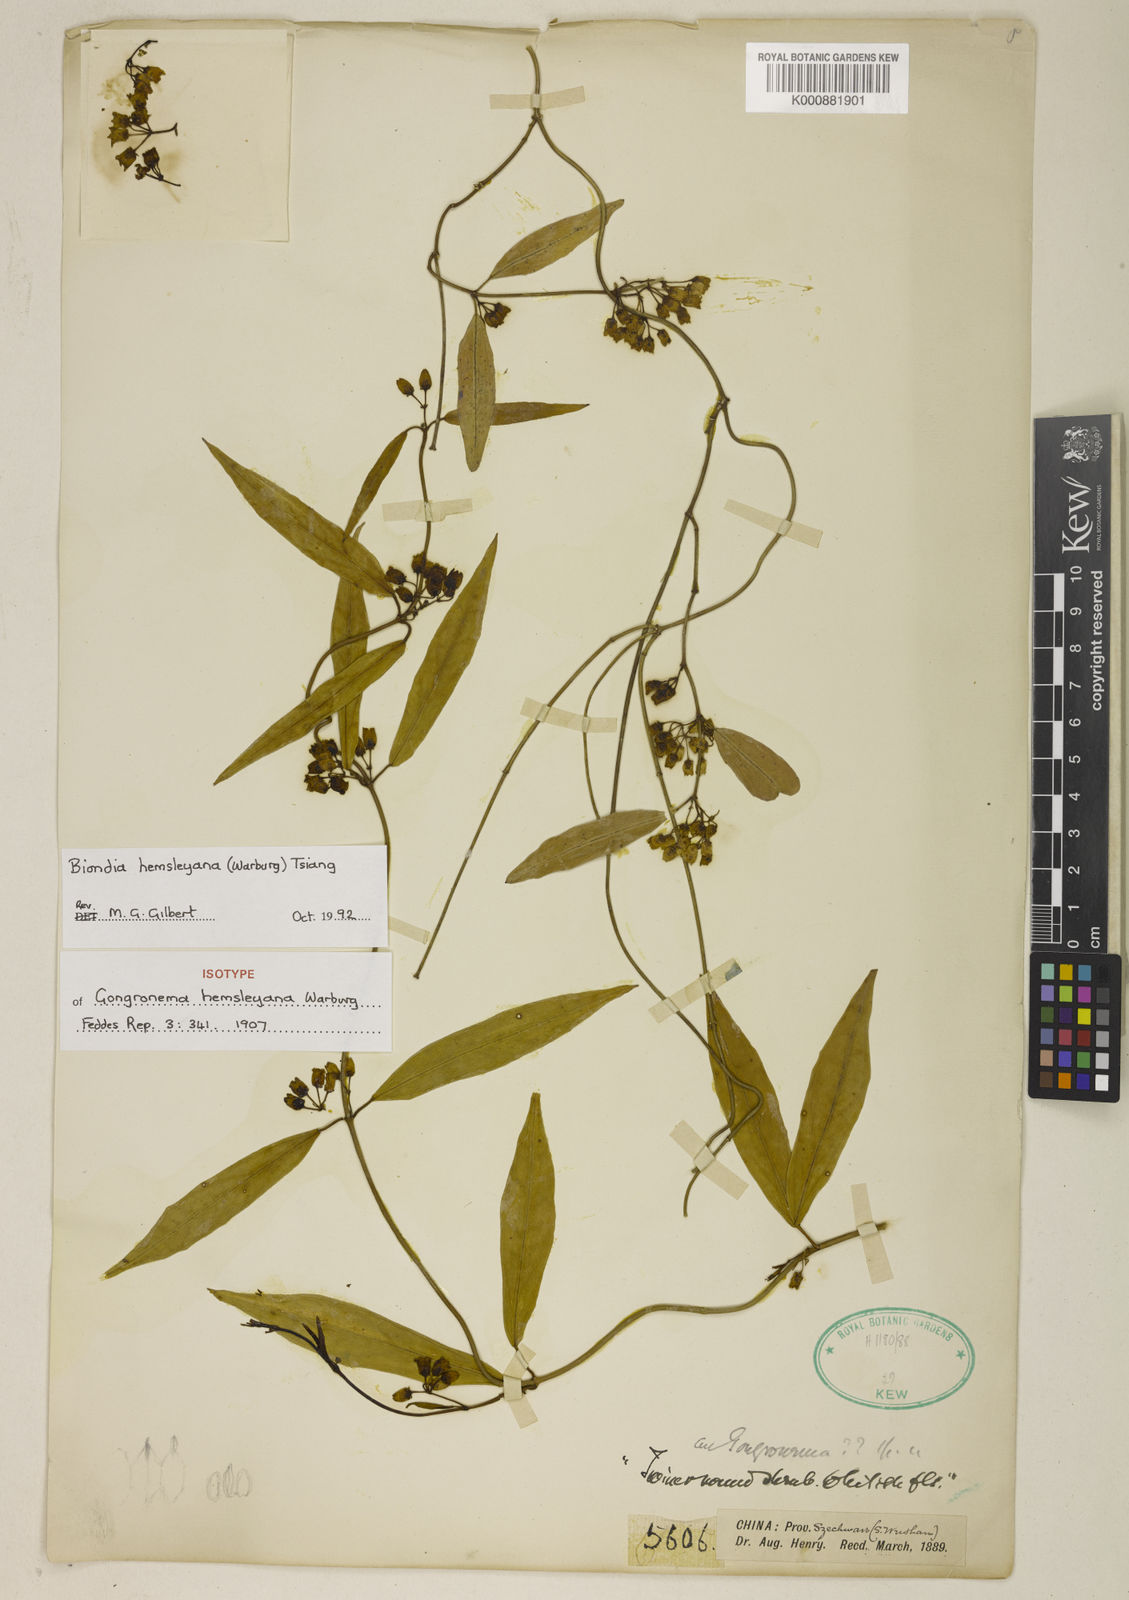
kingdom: Plantae
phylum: Tracheophyta
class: Magnoliopsida
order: Gentianales
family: Apocynaceae
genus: Vincetoxicum
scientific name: Vincetoxicum hemsleyanum
